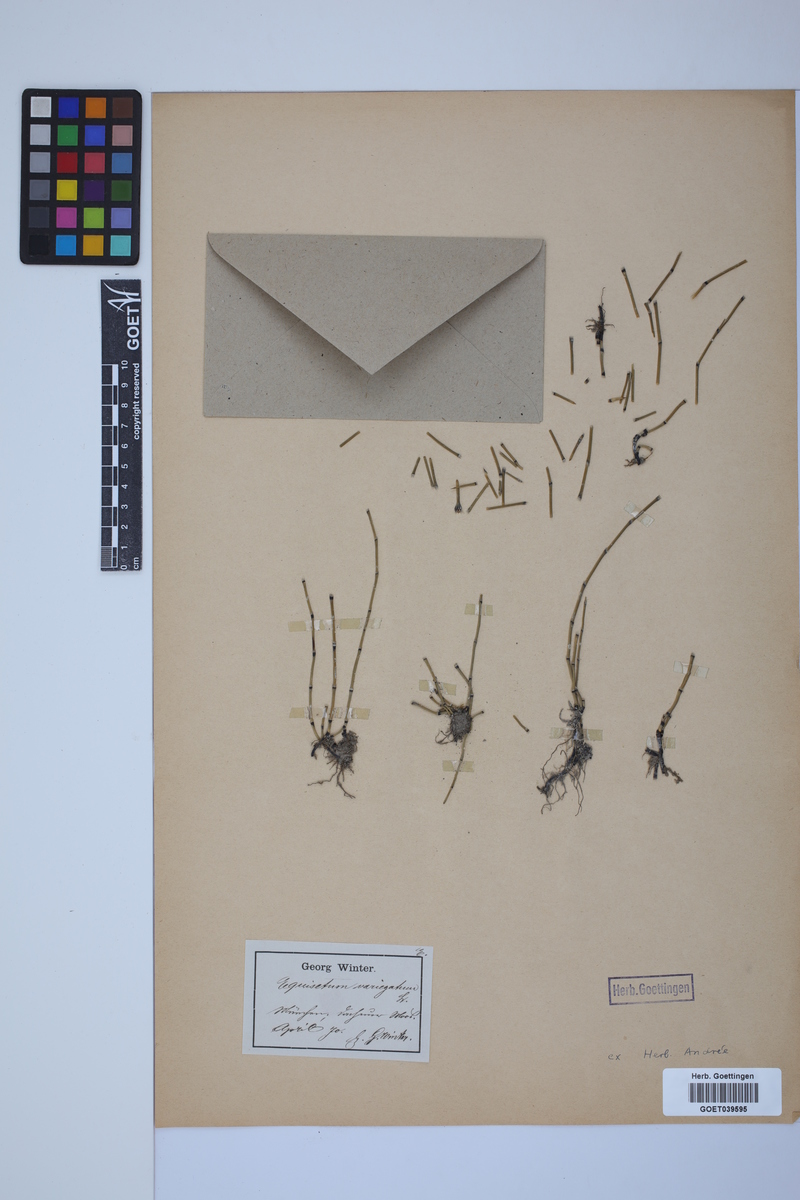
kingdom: Plantae
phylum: Tracheophyta
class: Polypodiopsida
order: Equisetales
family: Equisetaceae
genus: Equisetum
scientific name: Equisetum variegatum
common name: Variegated horsetail
